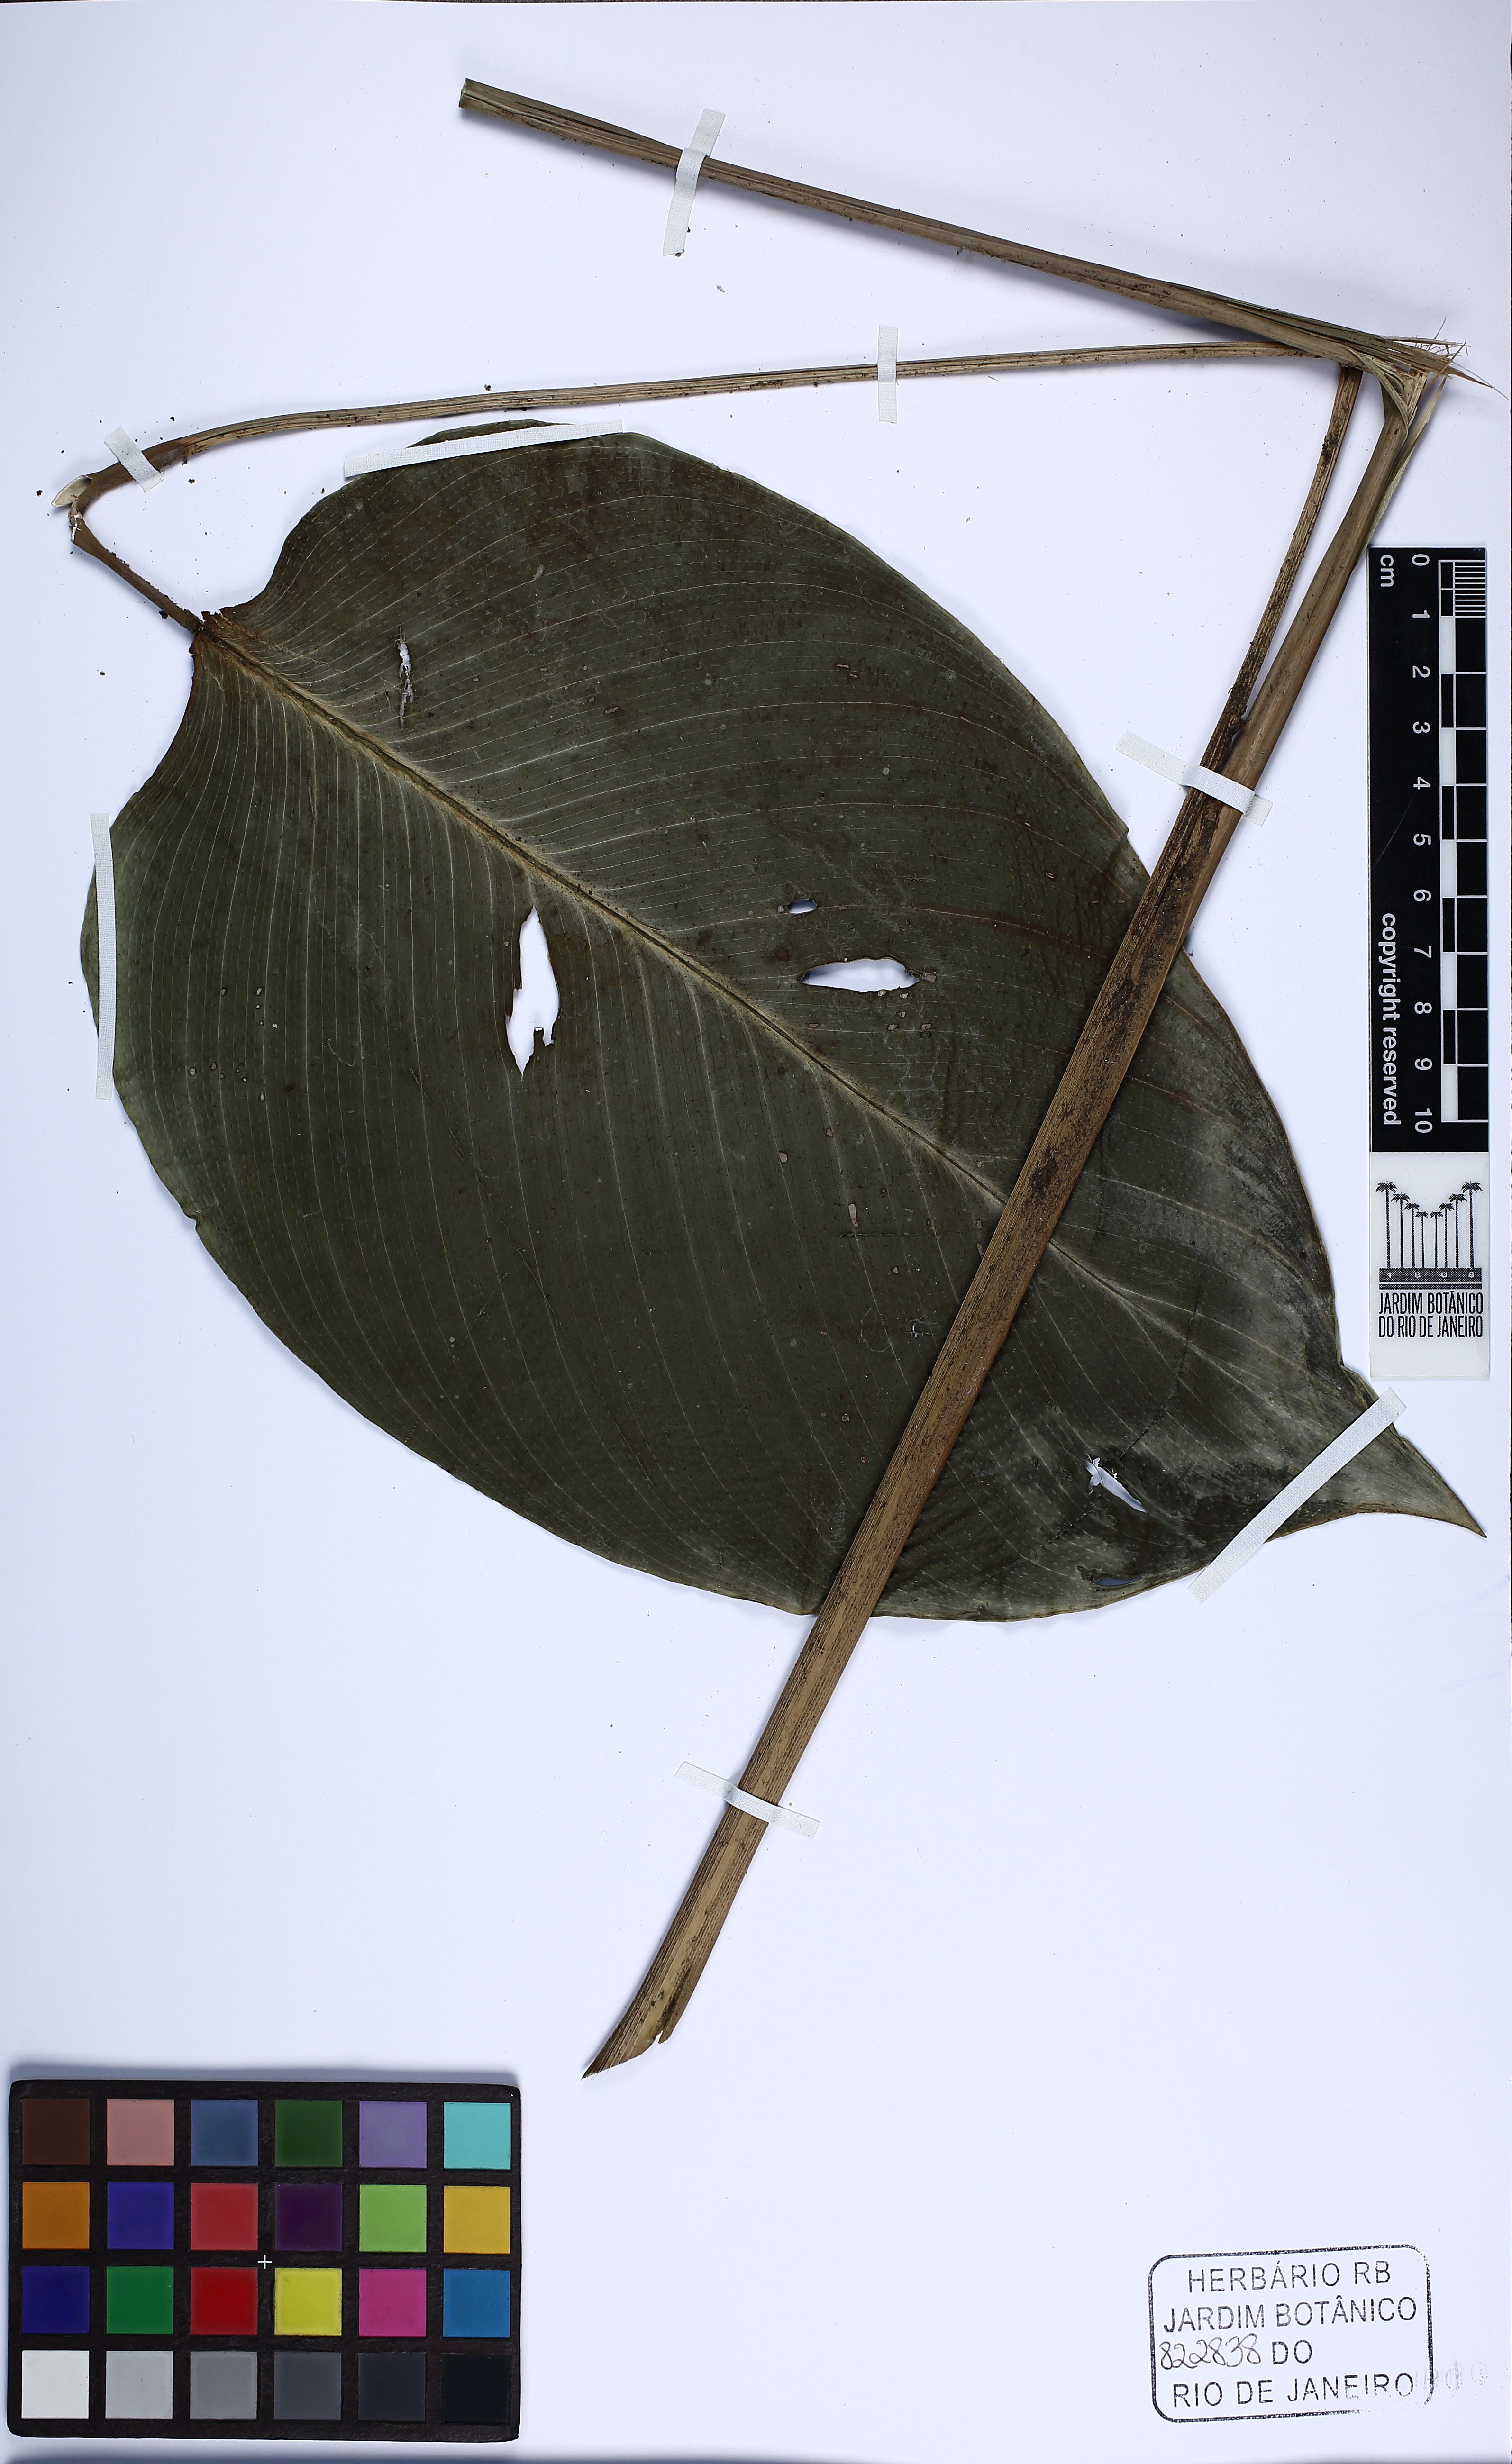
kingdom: Plantae
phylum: Tracheophyta
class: Liliopsida
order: Zingiberales
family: Marantaceae
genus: Ischnosiphon
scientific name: Ischnosiphon ovatus
